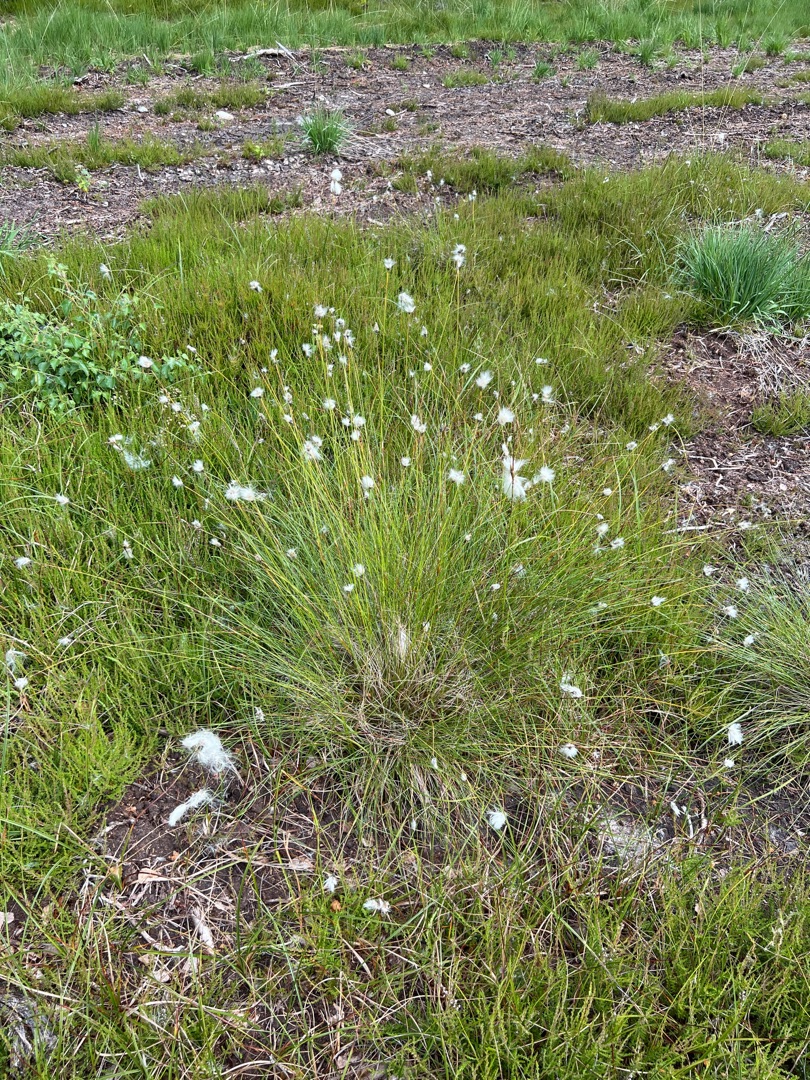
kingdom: Plantae
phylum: Tracheophyta
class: Liliopsida
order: Poales
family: Cyperaceae
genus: Eriophorum
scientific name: Eriophorum vaginatum
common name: Tue-kæruld
